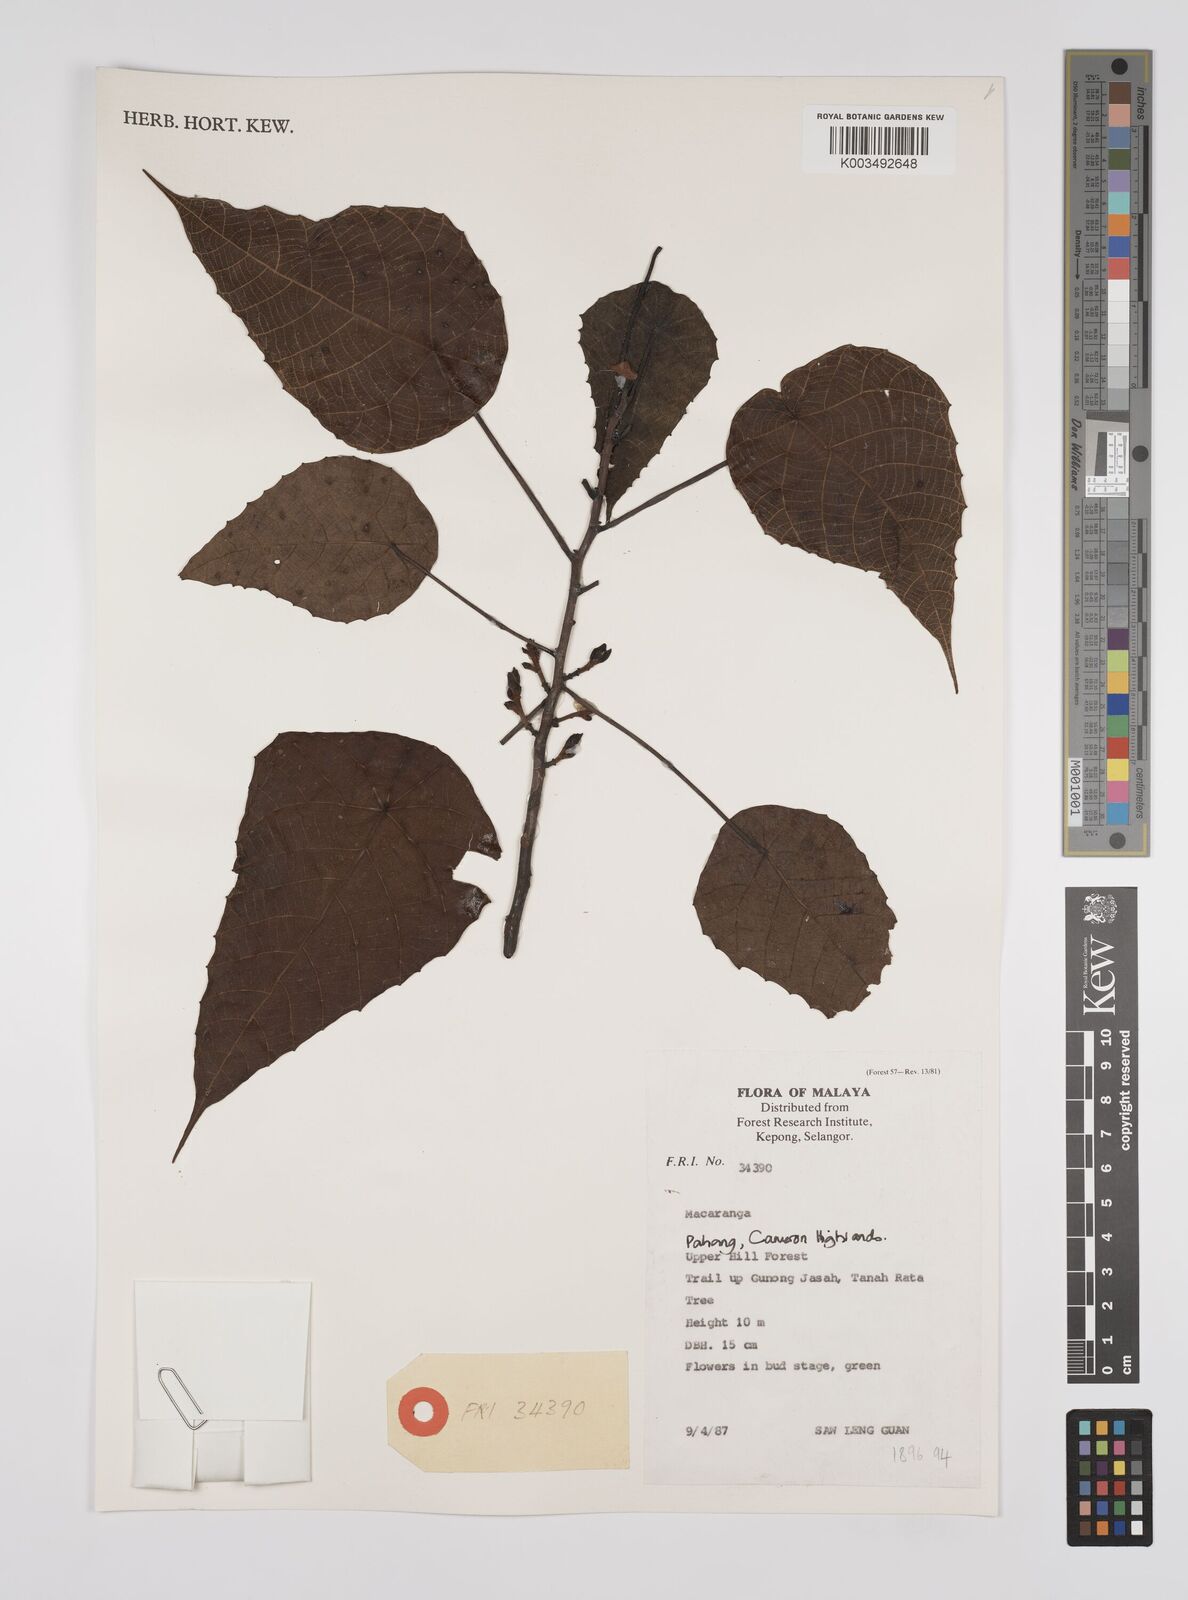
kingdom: Plantae
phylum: Tracheophyta
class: Magnoliopsida
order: Malpighiales
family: Euphorbiaceae
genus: Macaranga
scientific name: Macaranga
